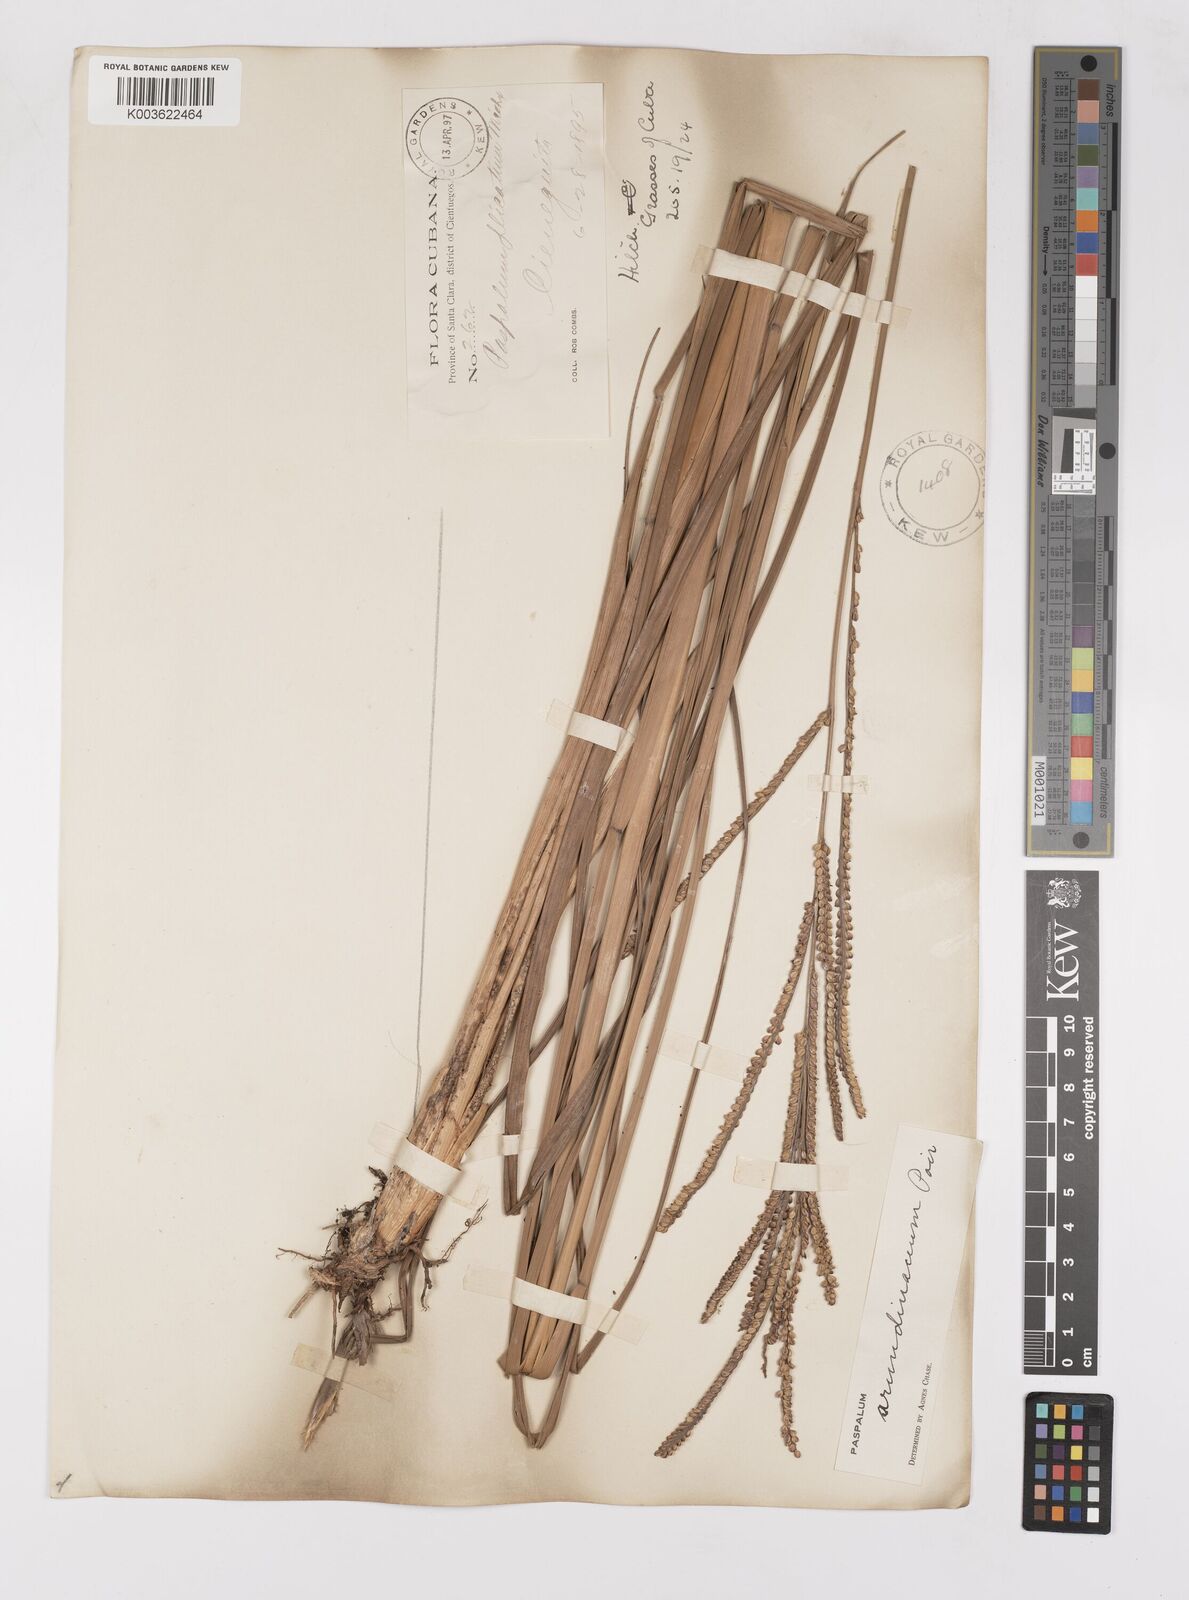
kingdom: Plantae
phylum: Tracheophyta
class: Liliopsida
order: Poales
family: Poaceae
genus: Paspalum
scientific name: Paspalum arundinaceum
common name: Thick ditch crowngrass
